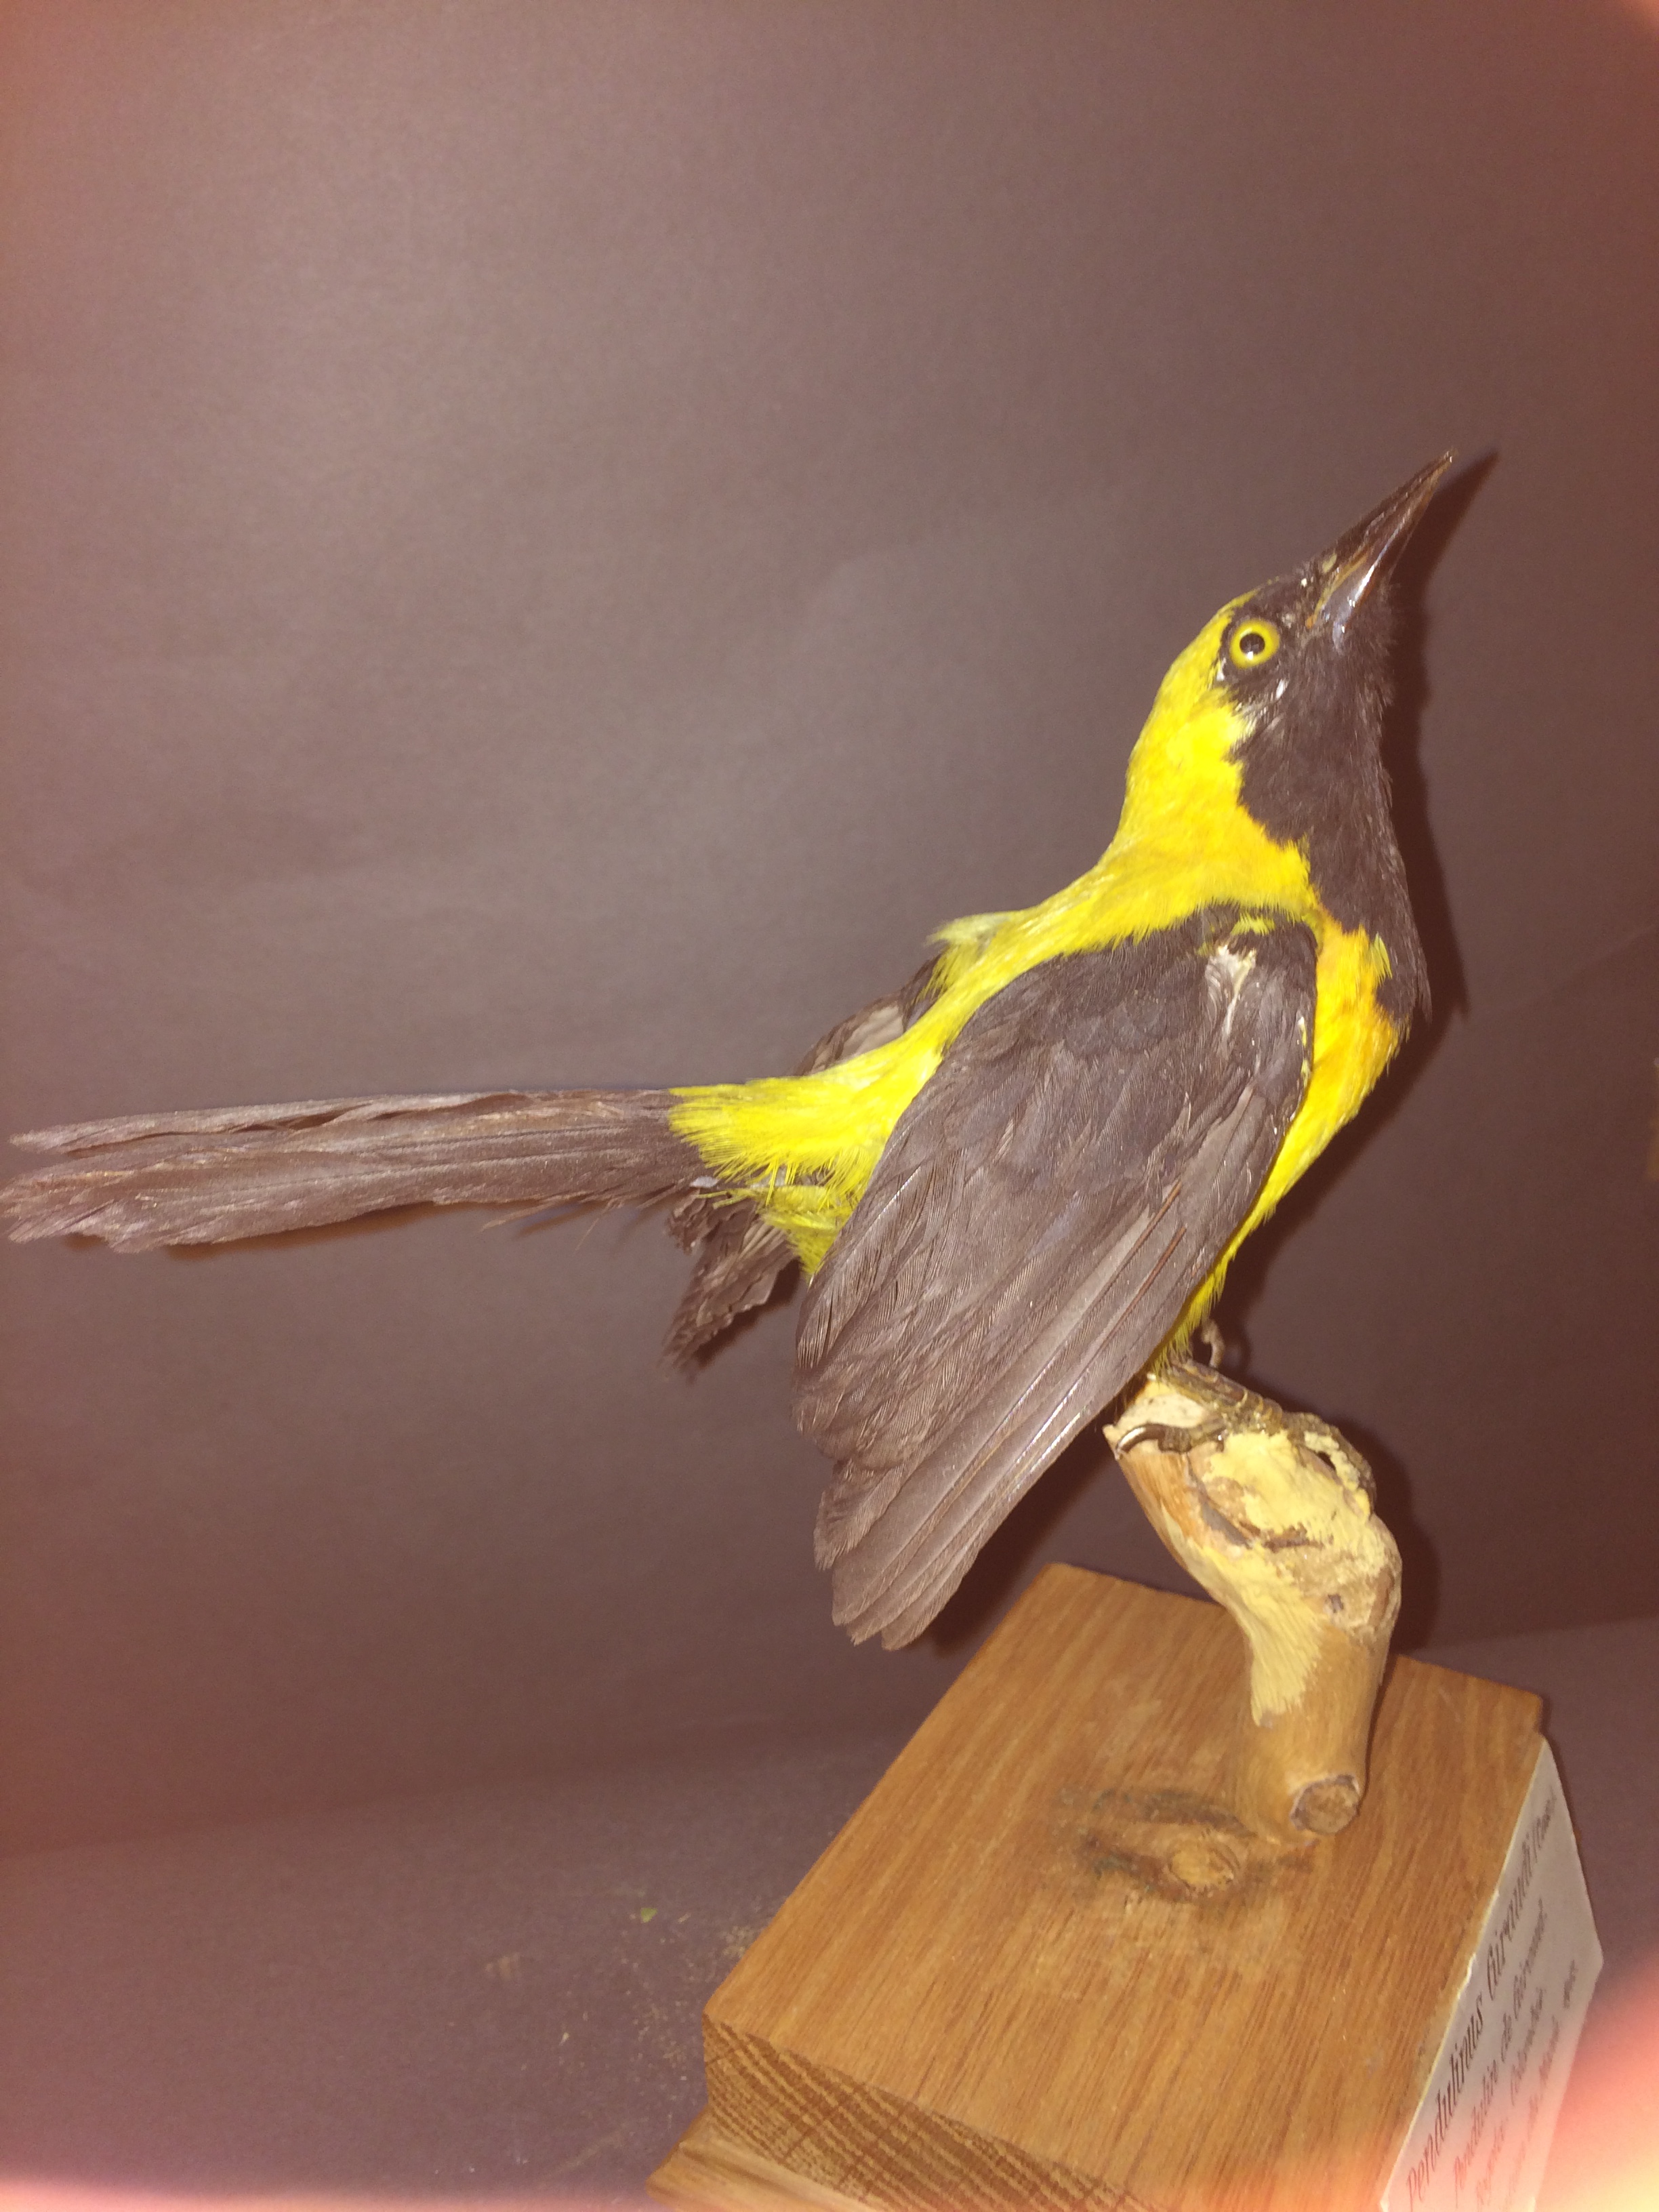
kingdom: Animalia
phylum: Chordata
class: Aves
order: Passeriformes
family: Icteridae
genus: Icterus
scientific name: Icterus chrysater
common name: Yellow-backed oriole
